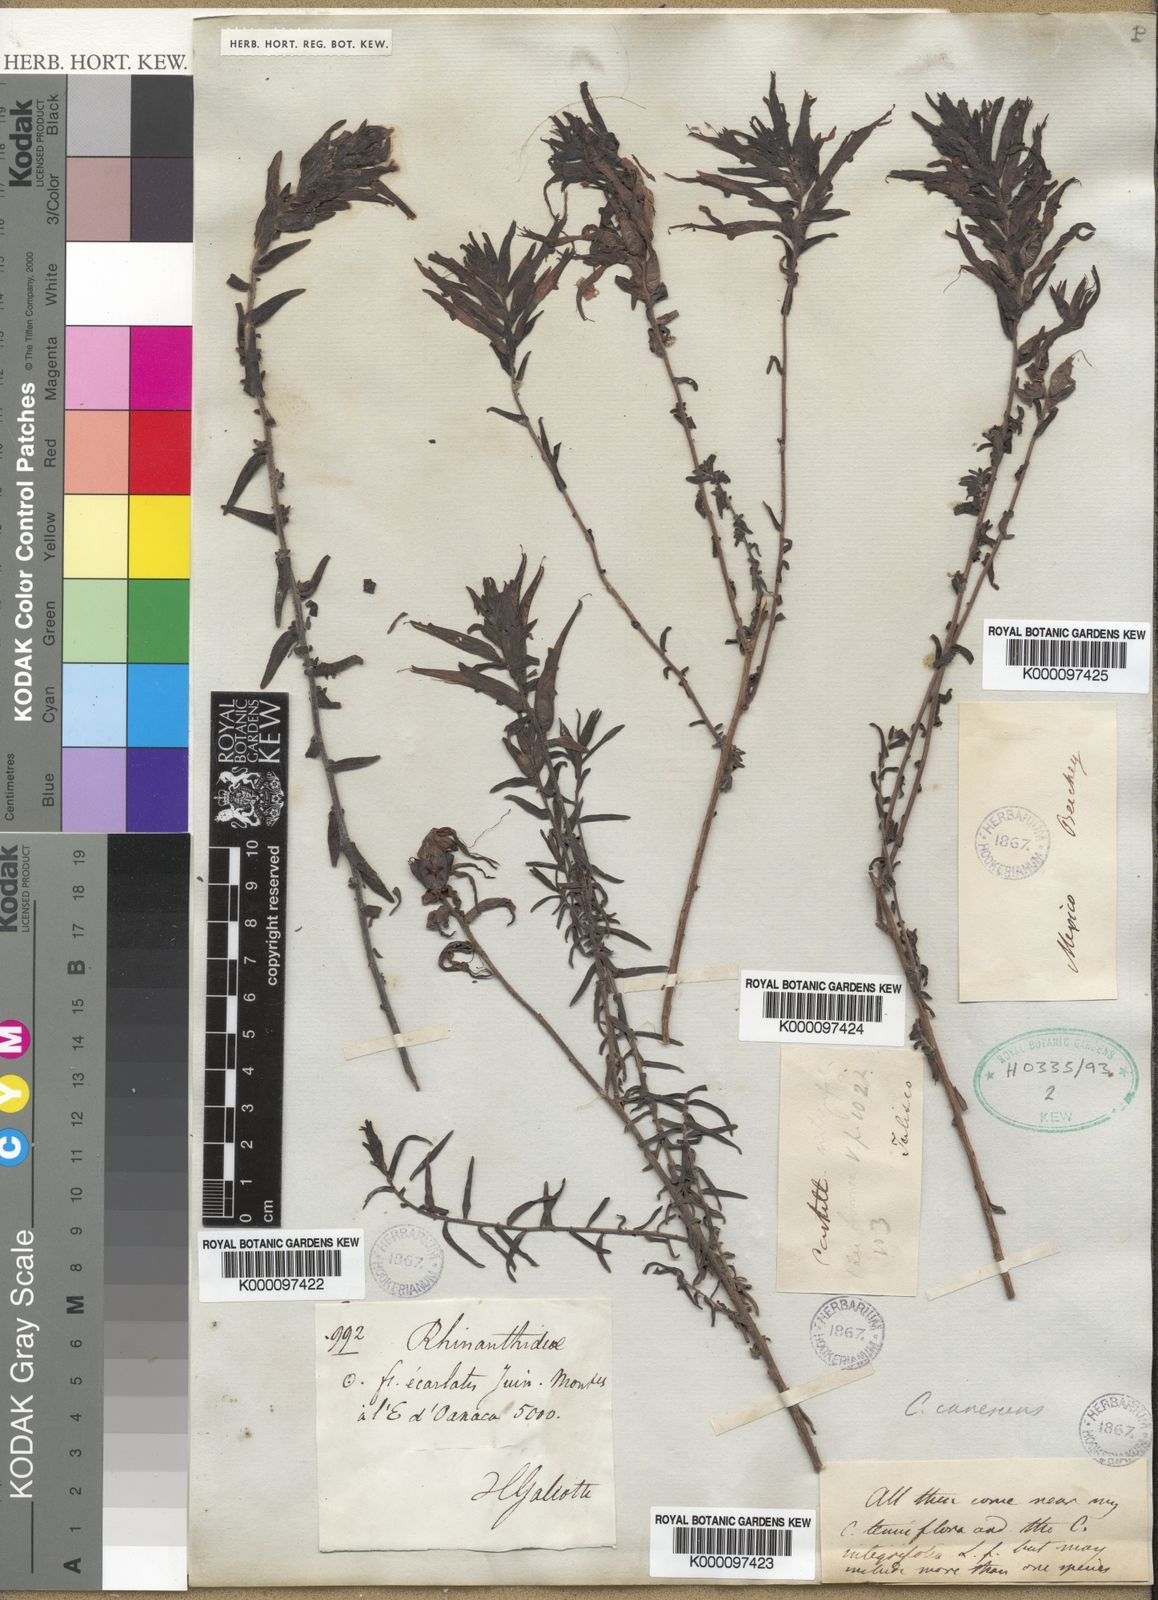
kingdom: Plantae
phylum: Tracheophyta
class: Magnoliopsida
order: Lamiales
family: Orobanchaceae
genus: Castilleja
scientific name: Castilleja tenuiflora
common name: Santa catalina indian paintbrush
